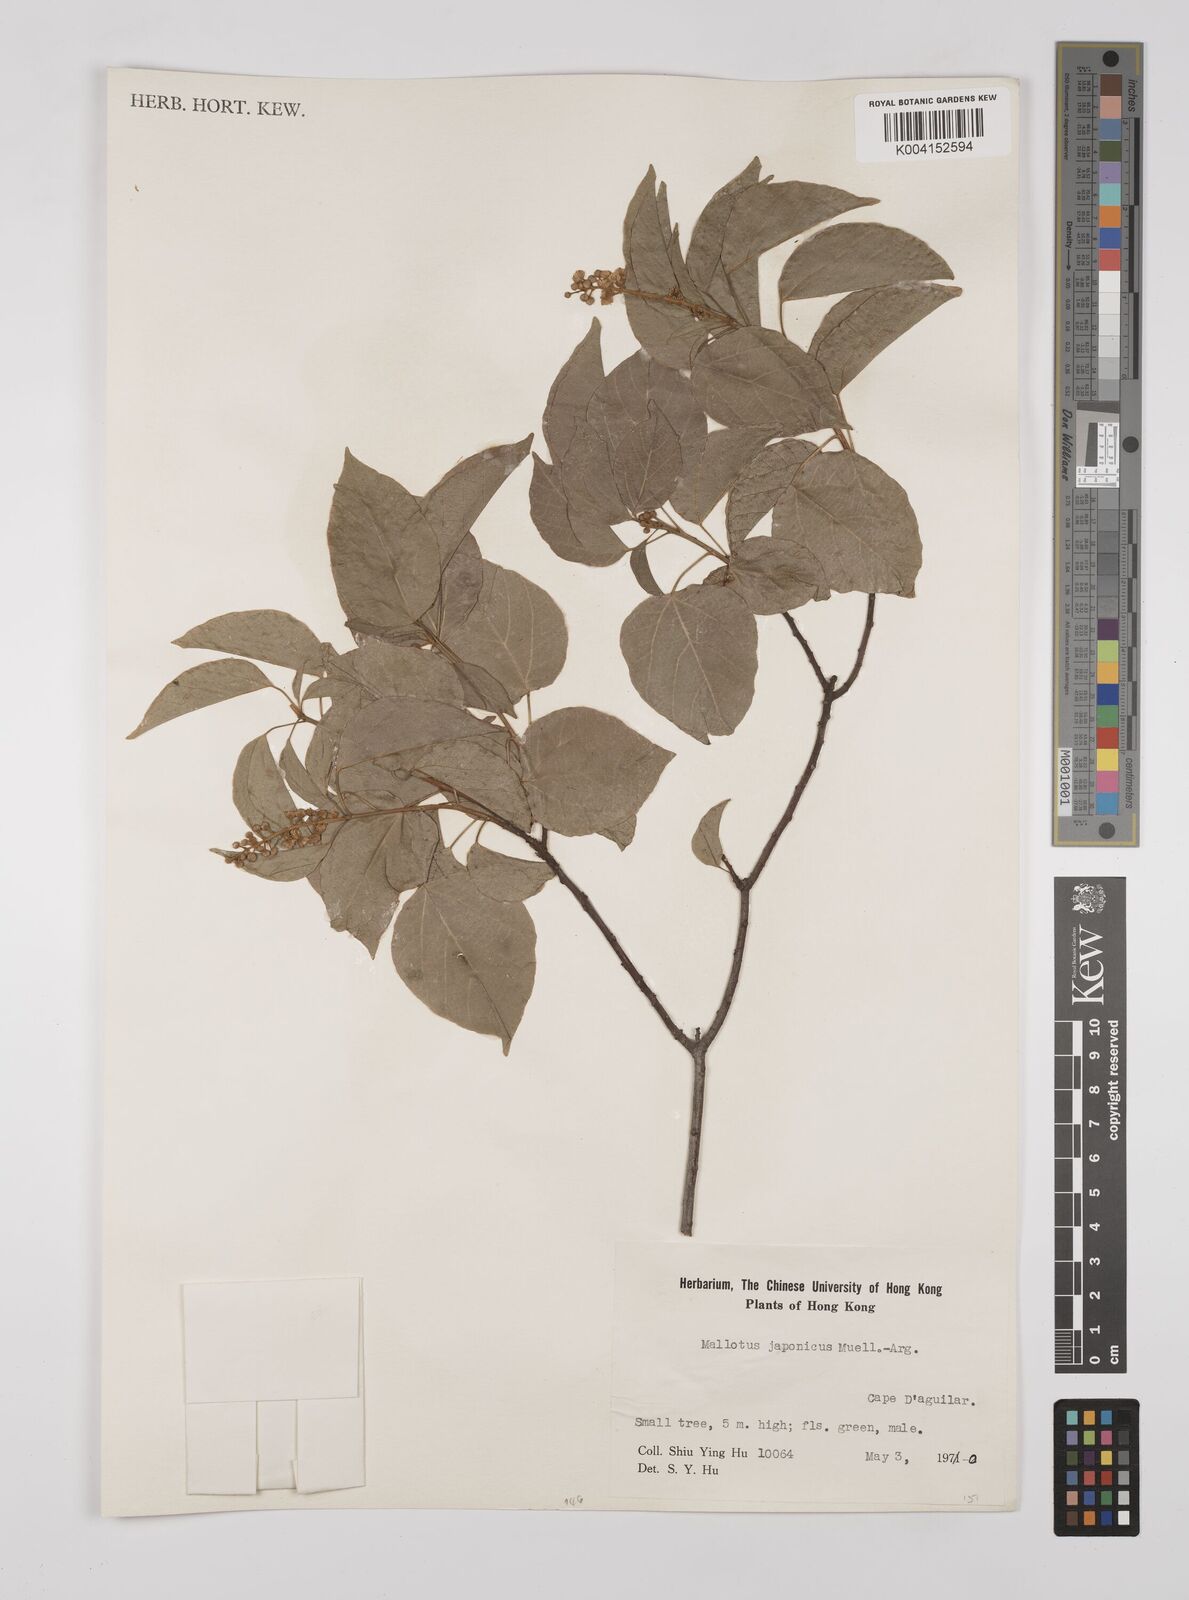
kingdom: Plantae
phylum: Tracheophyta
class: Magnoliopsida
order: Malpighiales
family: Euphorbiaceae
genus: Mallotus
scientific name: Mallotus japonicus
